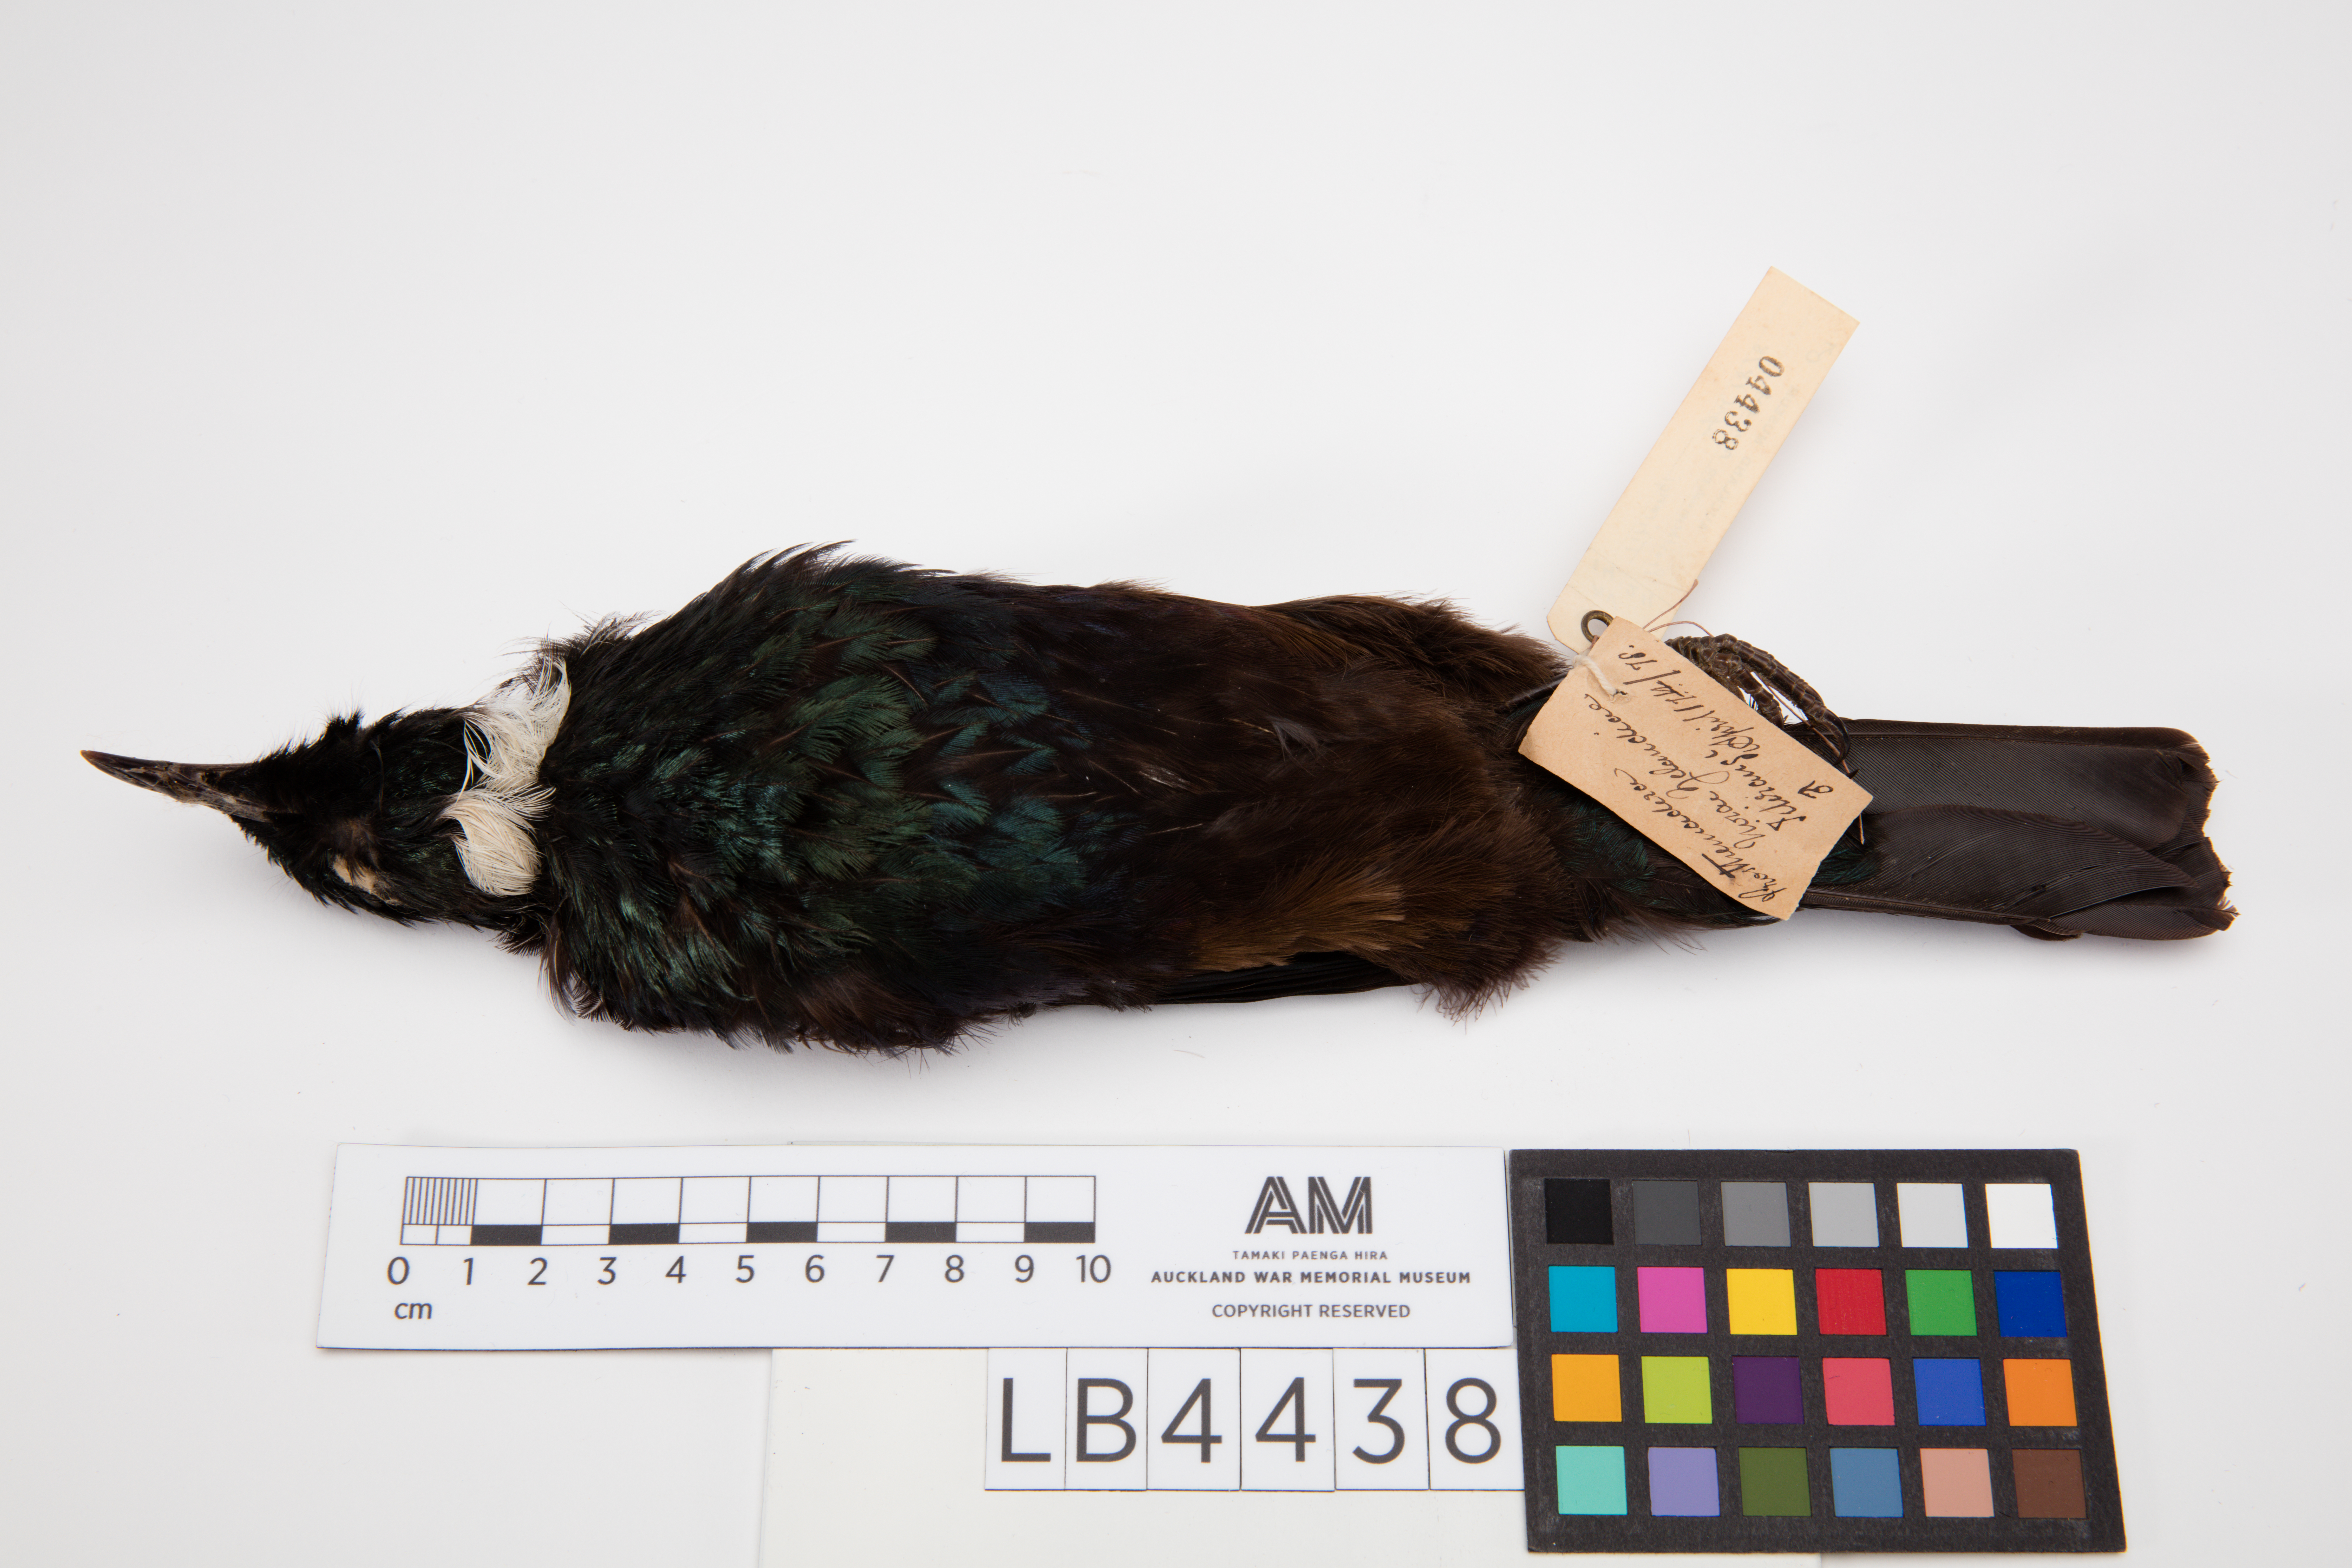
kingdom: Animalia
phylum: Chordata
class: Aves
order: Passeriformes
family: Meliphagidae
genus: Prosthemadera
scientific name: Prosthemadera novaeseelandiae
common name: Tui
